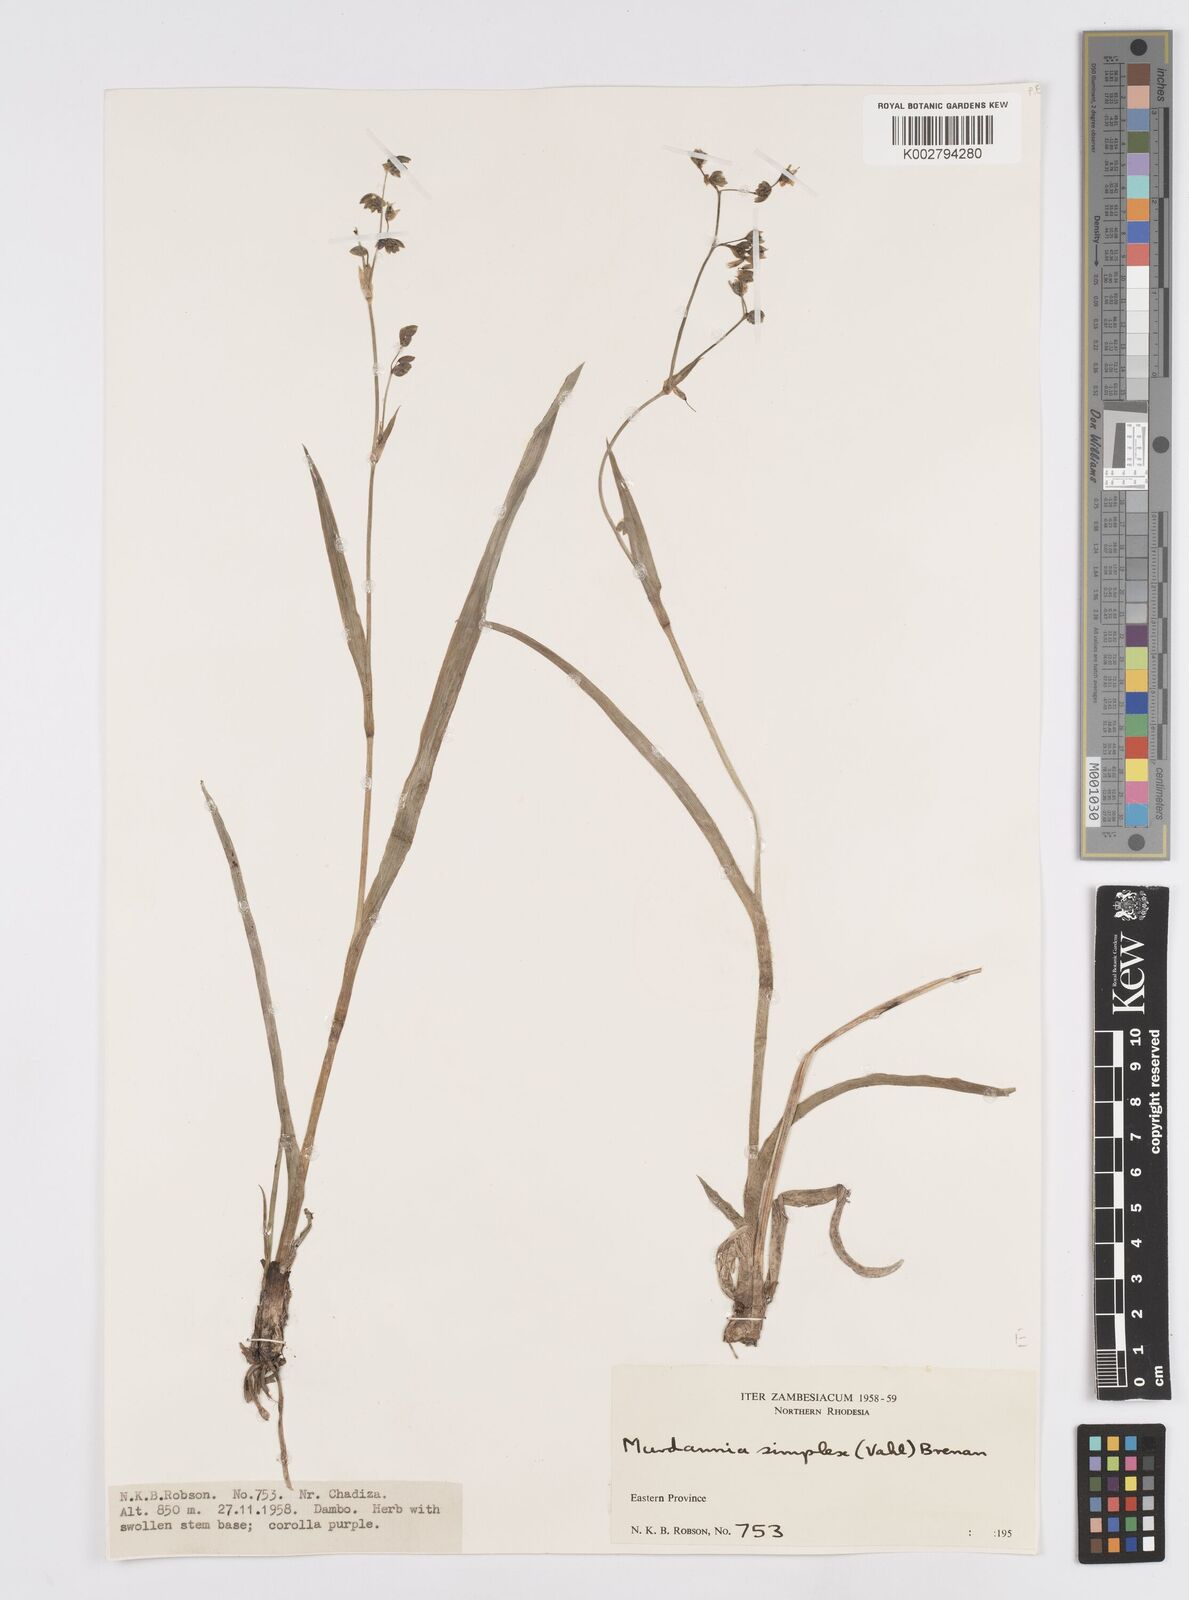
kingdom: Plantae
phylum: Tracheophyta
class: Liliopsida
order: Commelinales
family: Commelinaceae
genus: Murdannia
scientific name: Murdannia simplex
